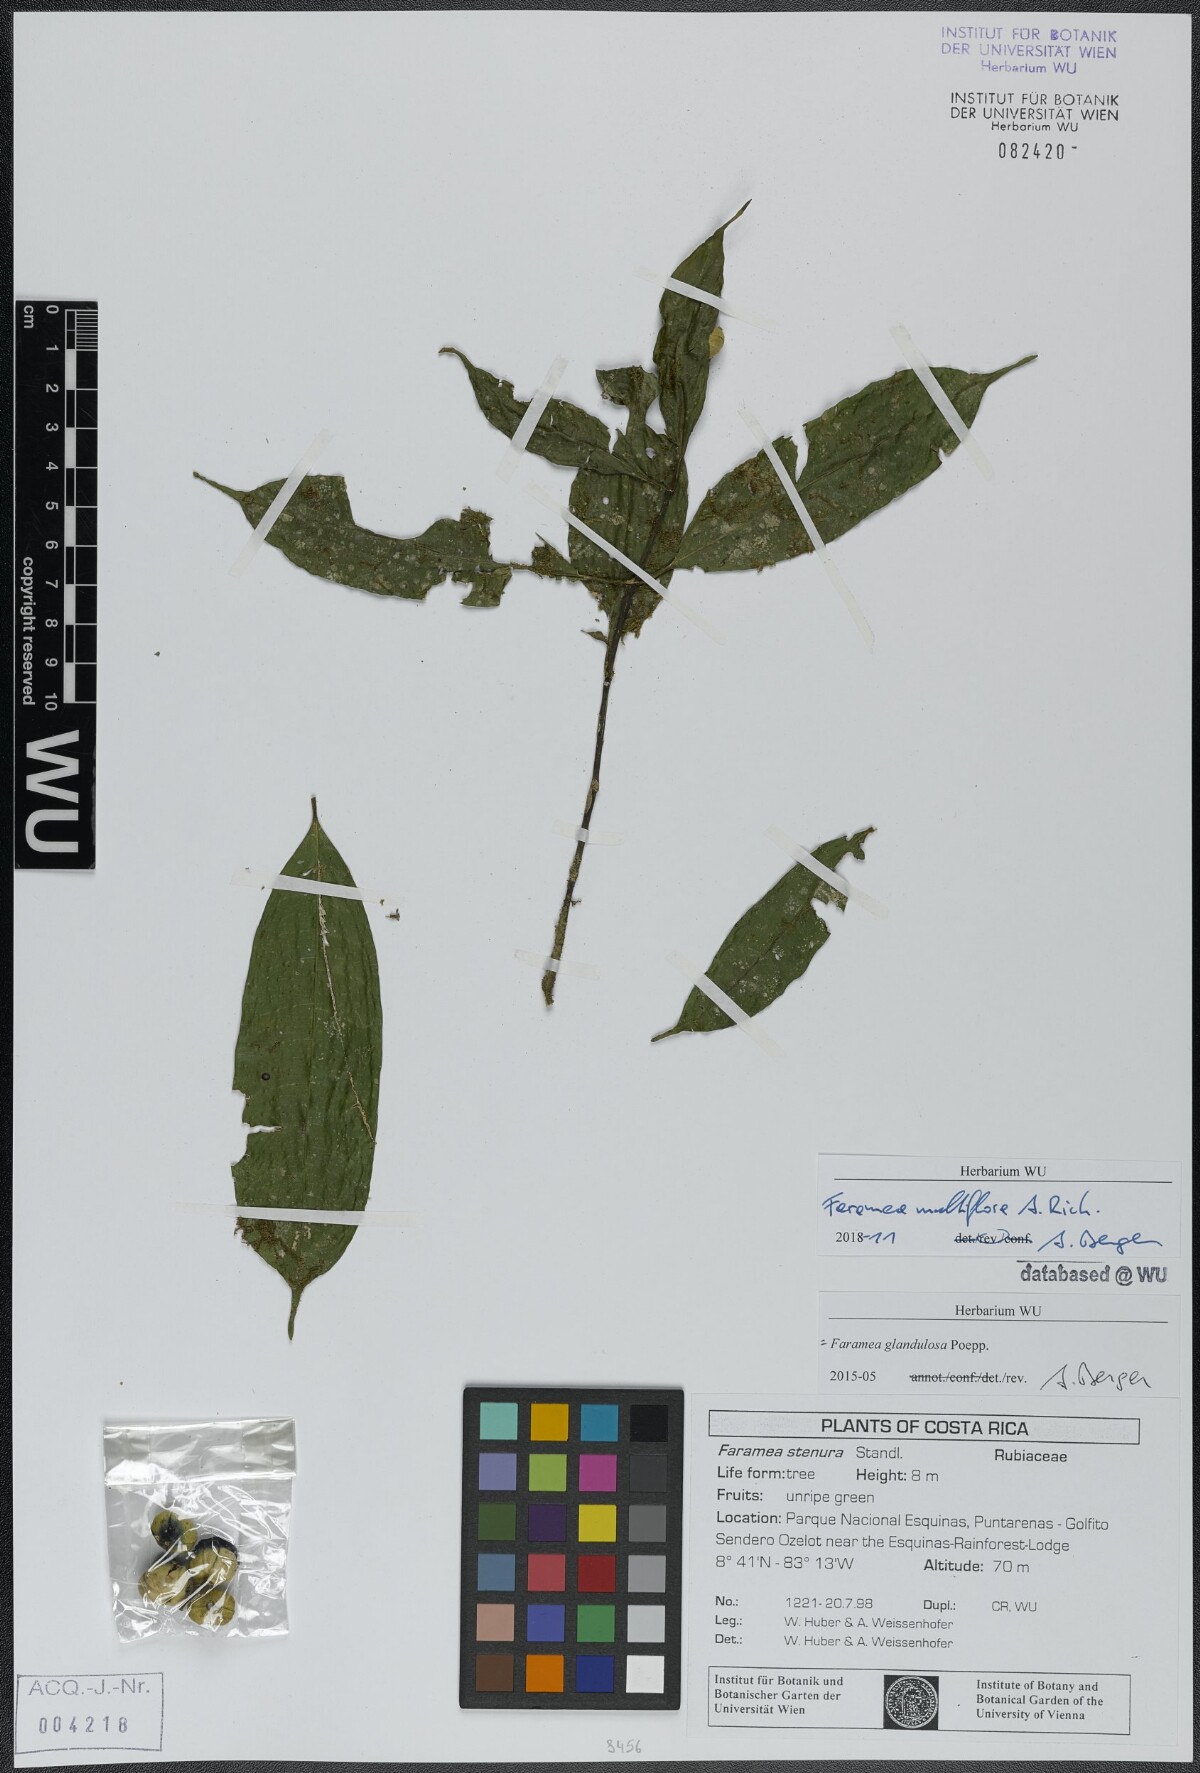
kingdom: Plantae
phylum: Tracheophyta
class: Magnoliopsida
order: Gentianales
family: Rubiaceae
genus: Faramea
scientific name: Faramea multiflora
